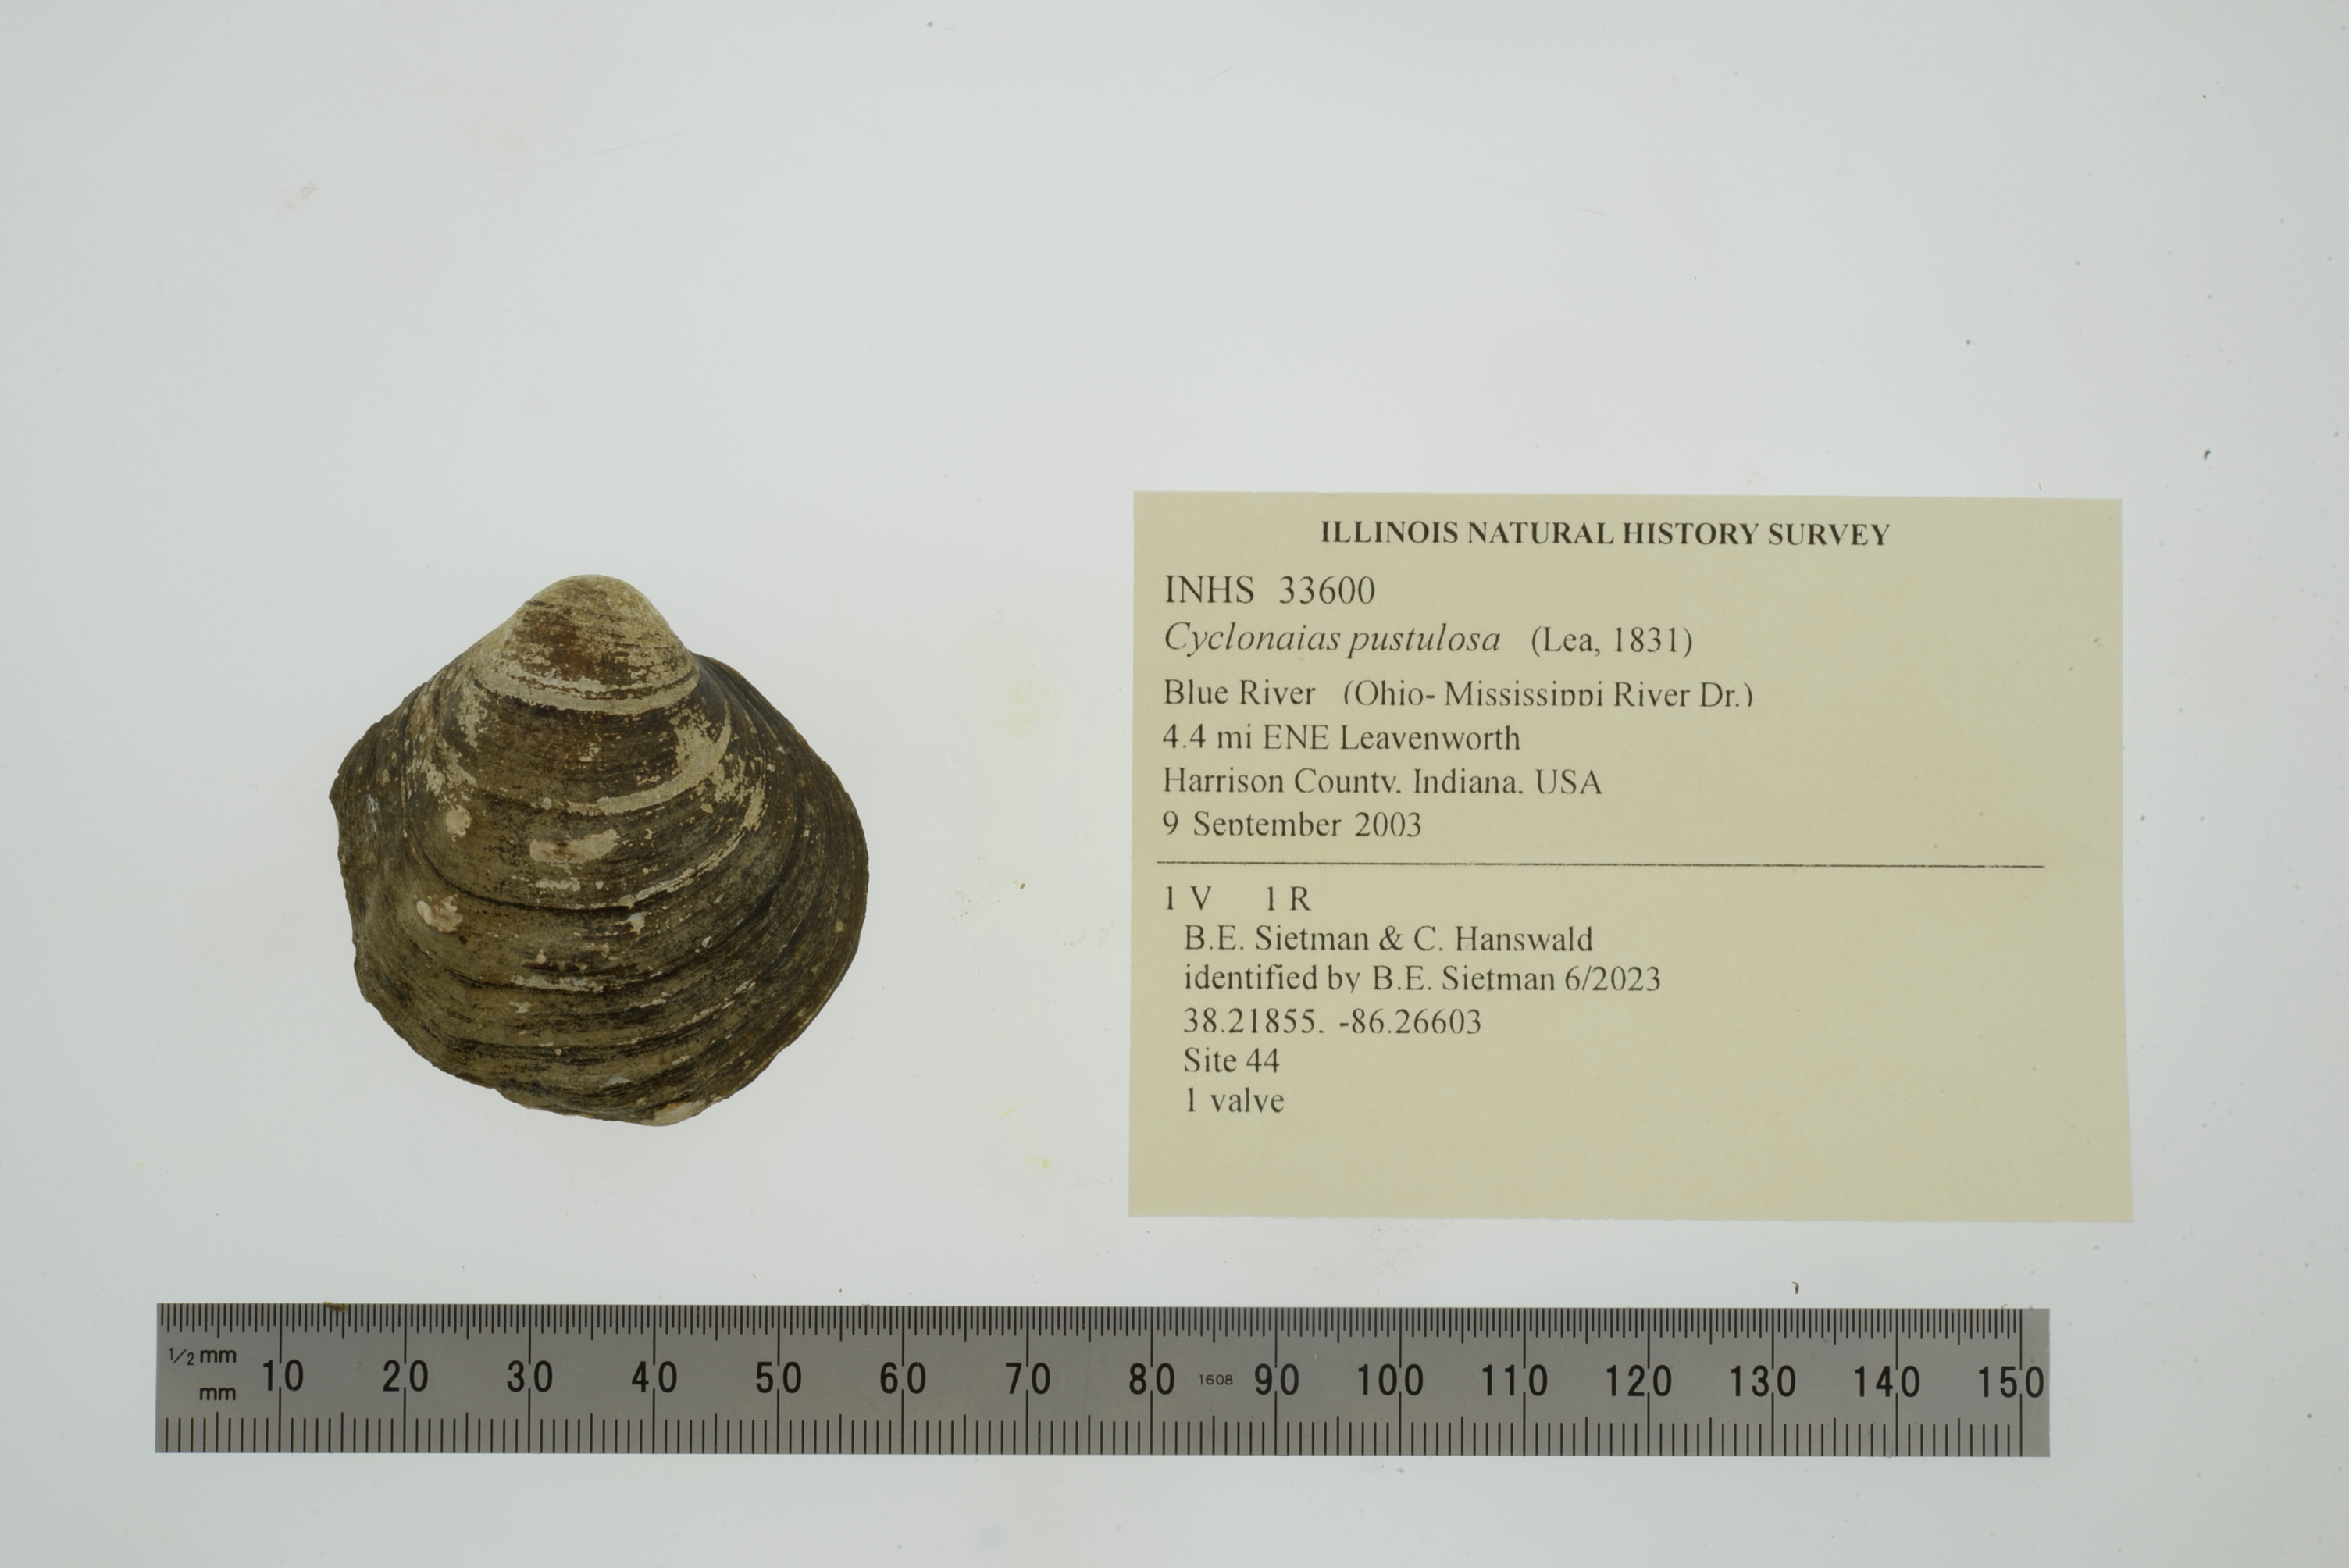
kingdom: Animalia
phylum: Mollusca
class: Bivalvia
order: Unionida
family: Unionidae
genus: Cyclonaias
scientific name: Cyclonaias pustulosa
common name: Pimpleback
